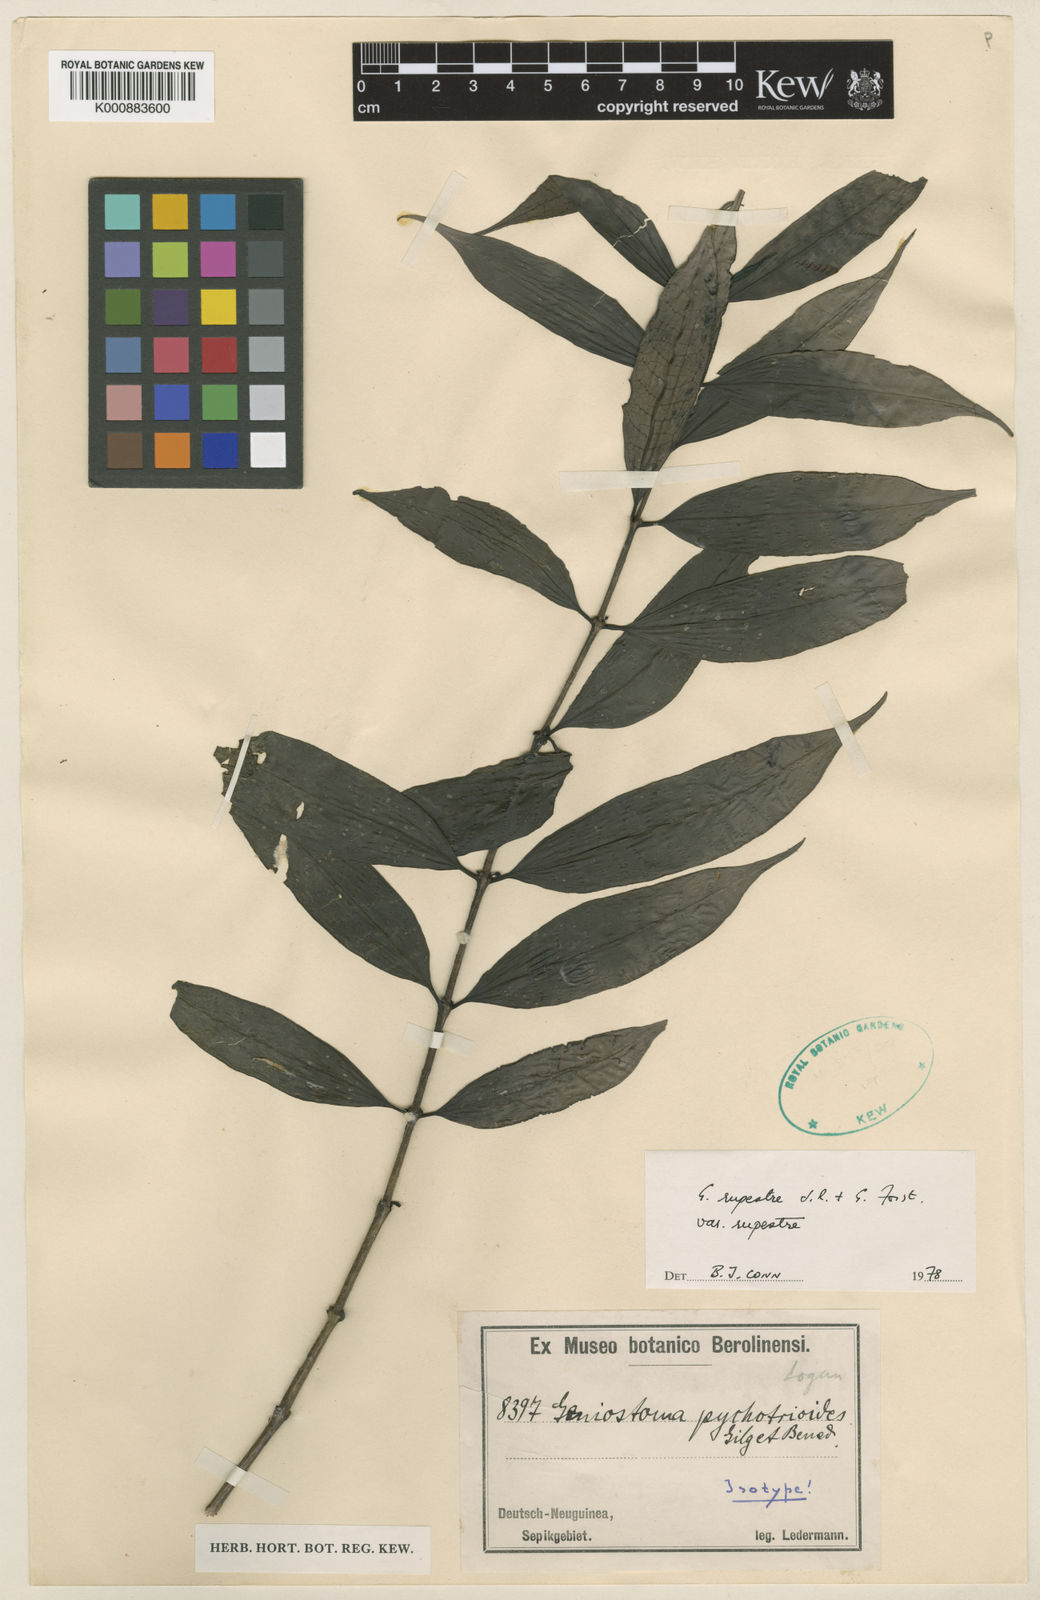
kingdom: Plantae
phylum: Tracheophyta
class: Magnoliopsida
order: Gentianales
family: Loganiaceae
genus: Geniostoma
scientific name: Geniostoma rupestre
